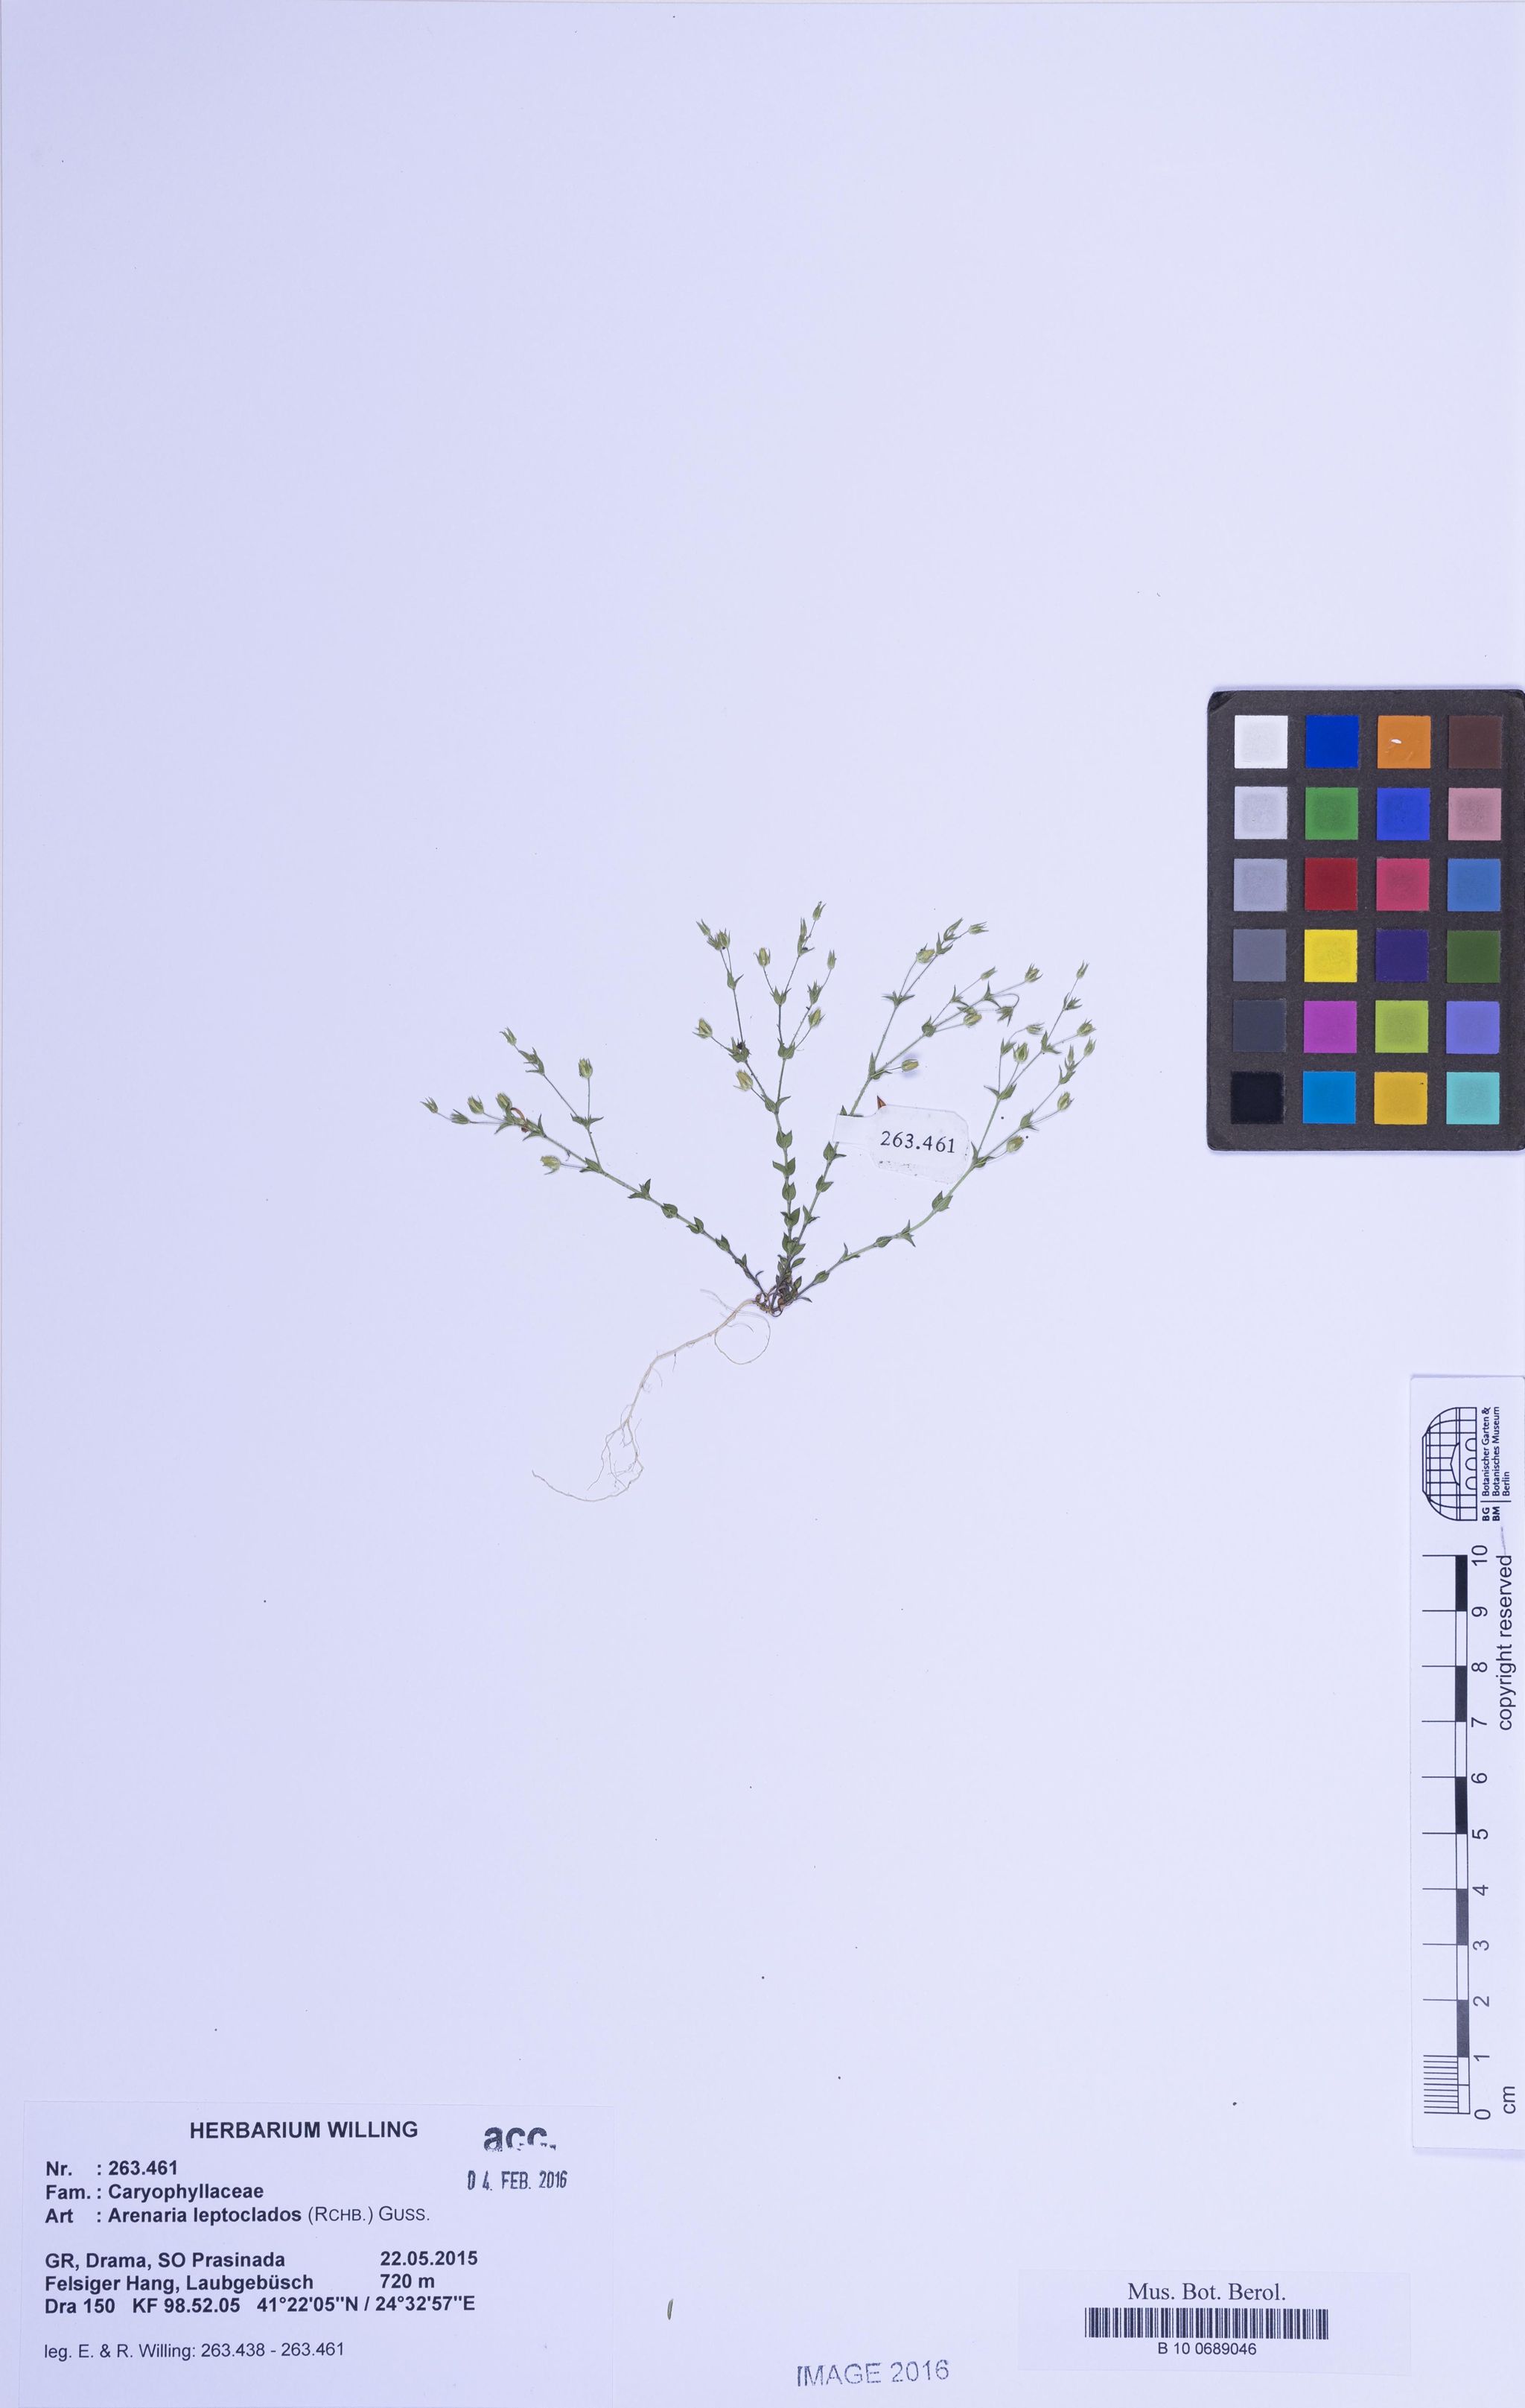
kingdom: Plantae
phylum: Tracheophyta
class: Magnoliopsida
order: Caryophyllales
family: Caryophyllaceae
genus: Arenaria
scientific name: Arenaria leptoclados
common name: Thyme-leaved sandwort
